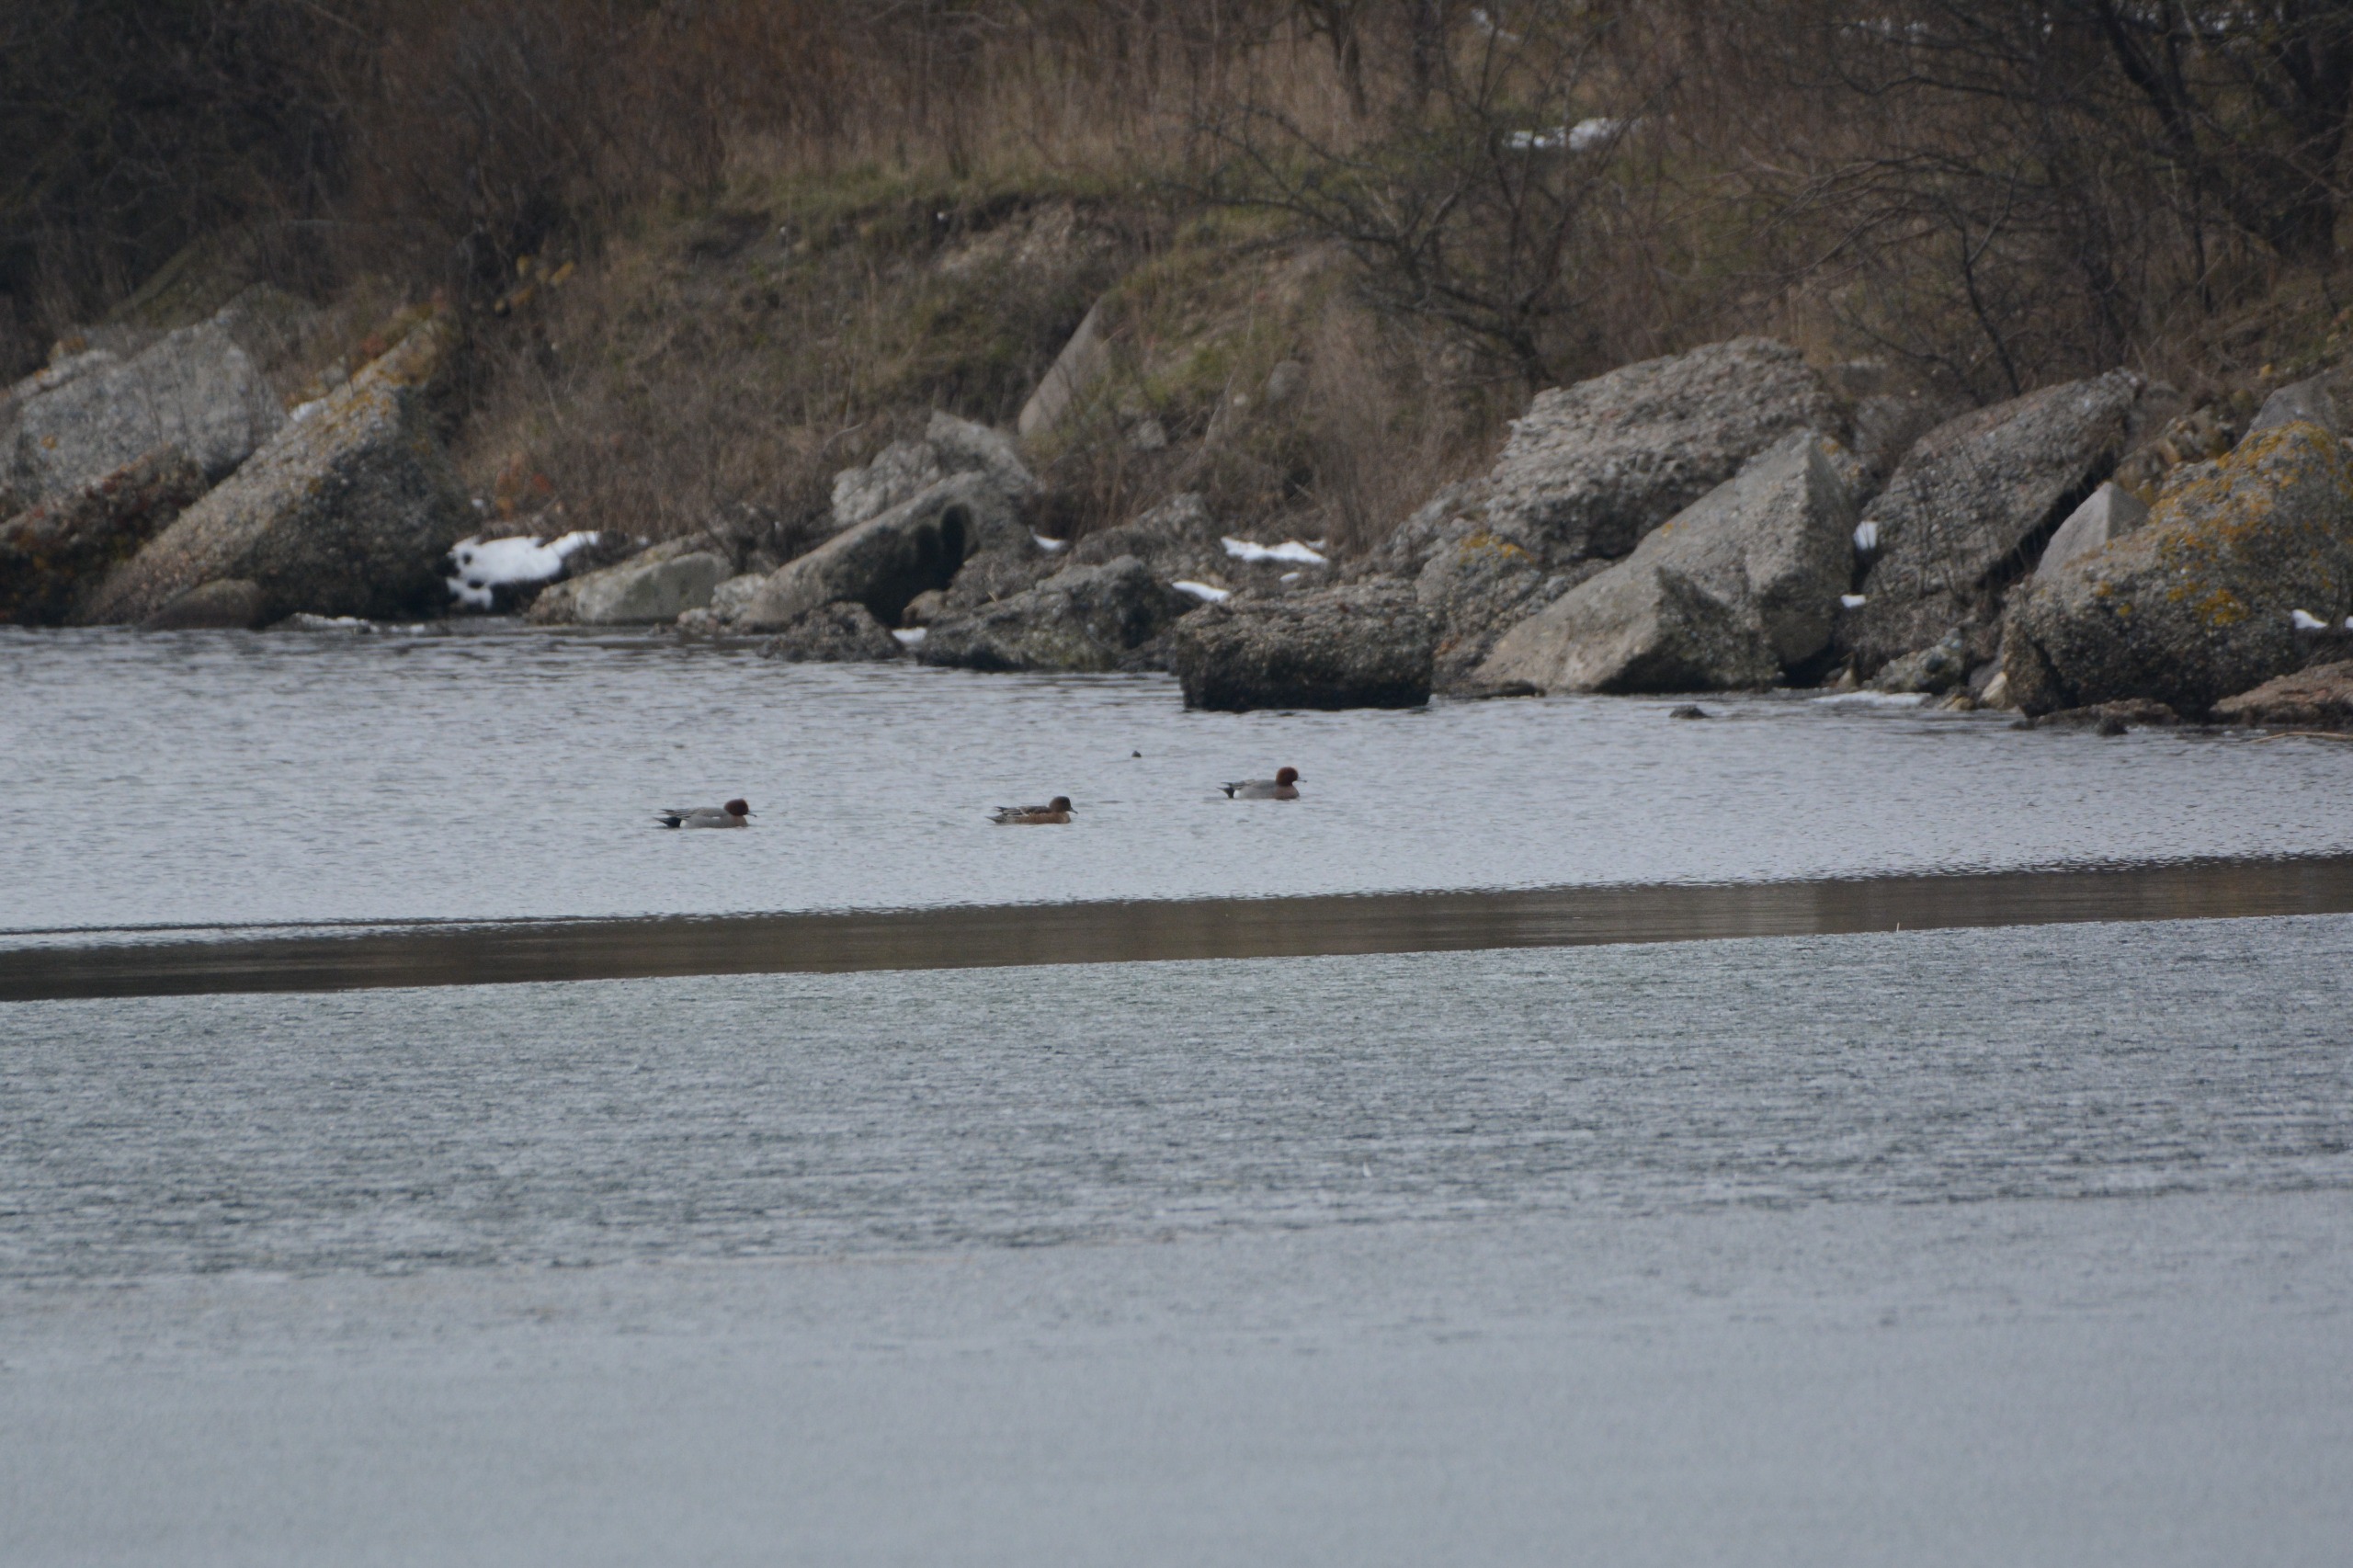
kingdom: Animalia
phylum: Chordata
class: Aves
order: Anseriformes
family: Anatidae
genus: Mareca
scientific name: Mareca penelope
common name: Pibeand
